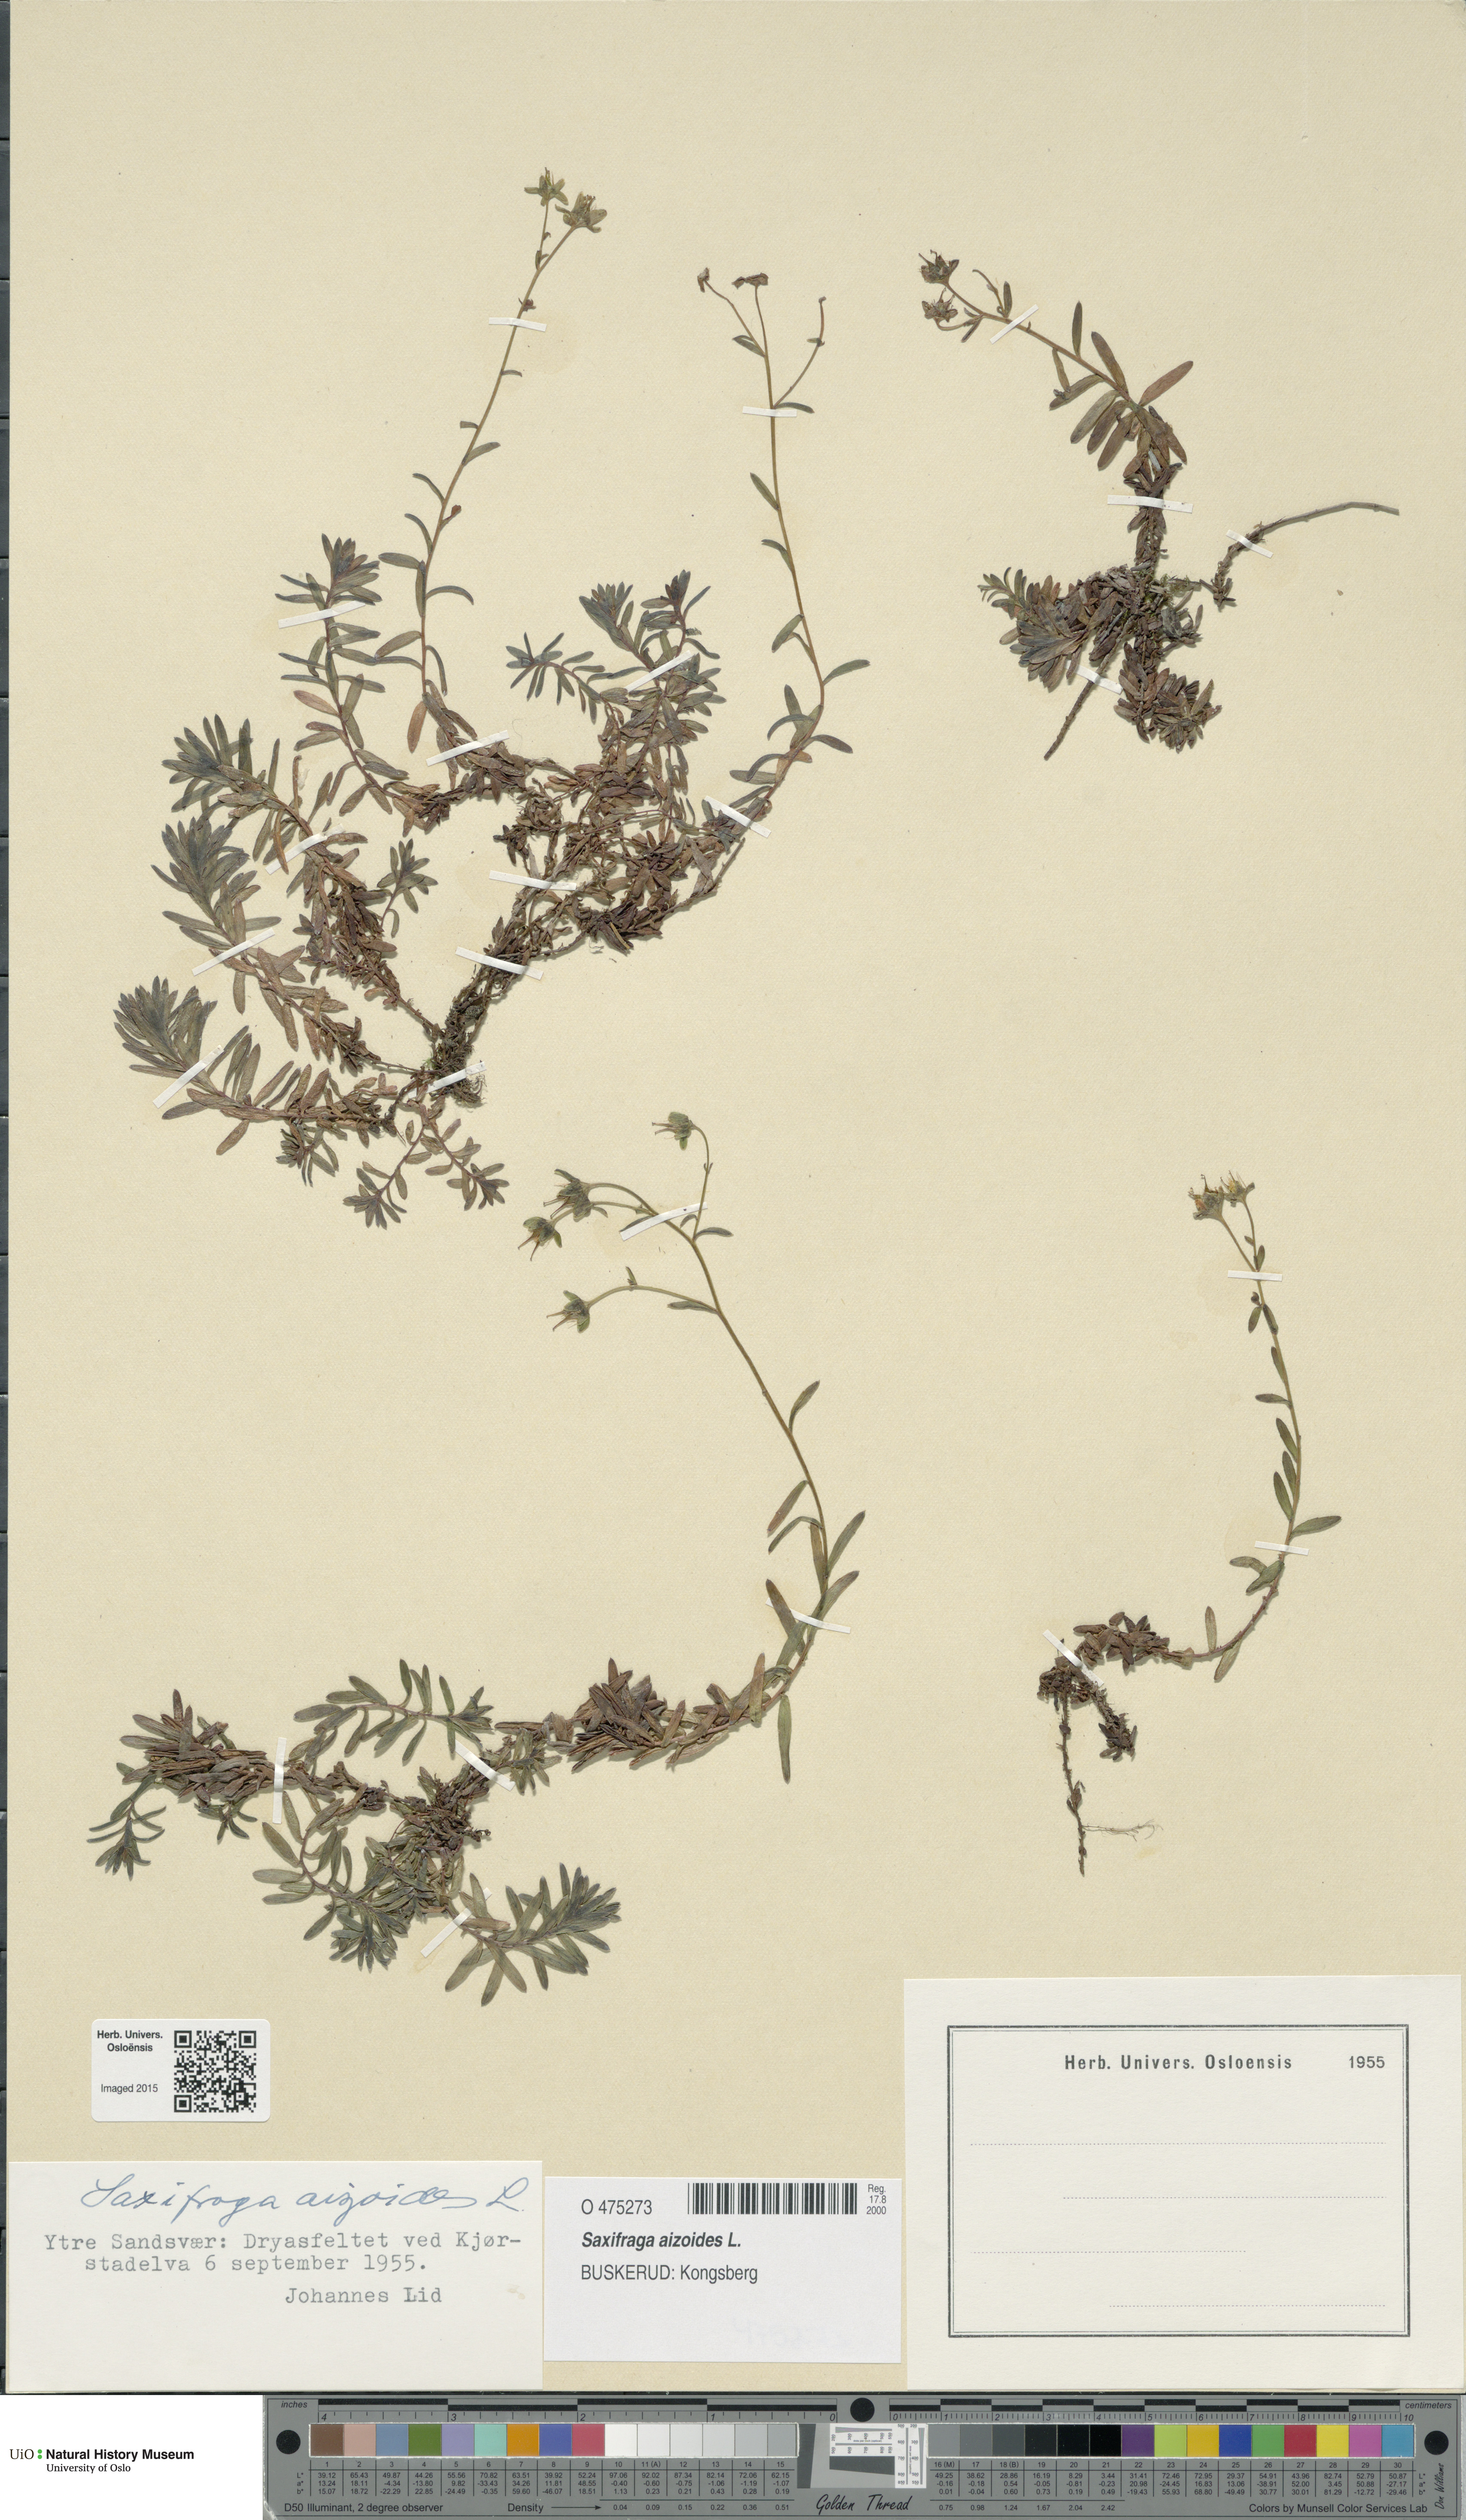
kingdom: Plantae
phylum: Tracheophyta
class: Magnoliopsida
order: Saxifragales
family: Saxifragaceae
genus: Saxifraga
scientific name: Saxifraga aizoides
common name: Yellow mountain saxifrage
